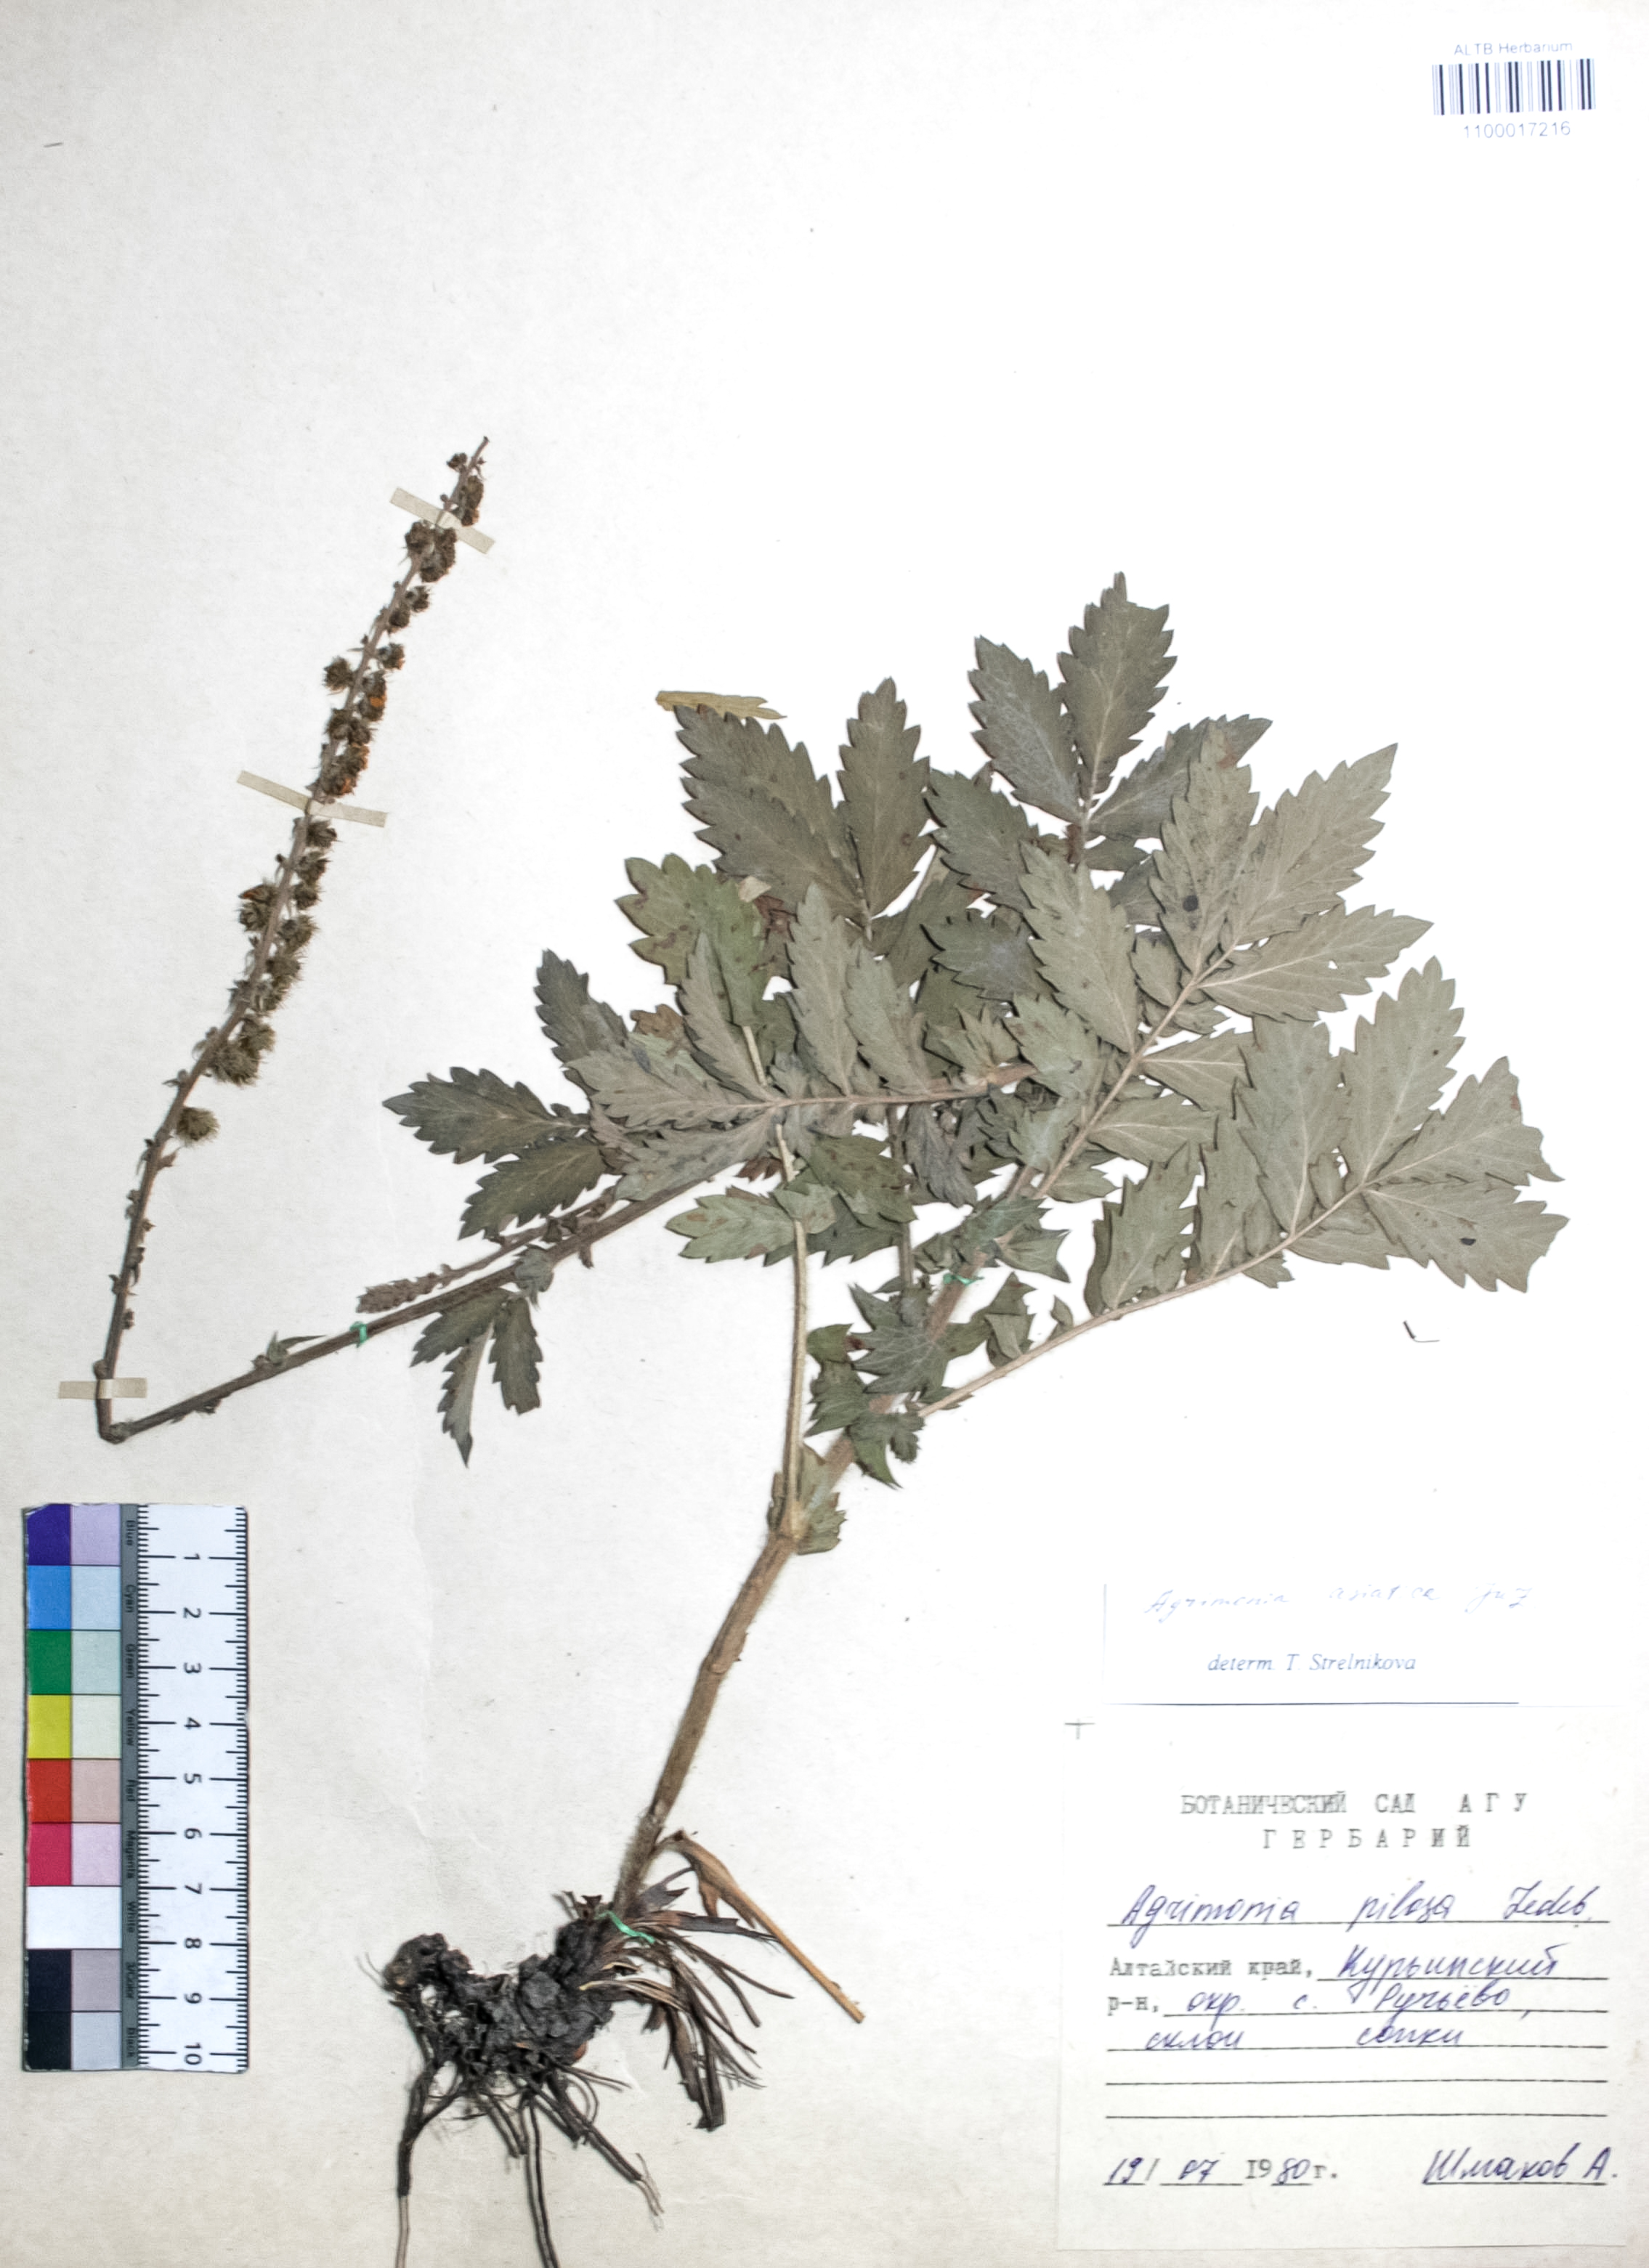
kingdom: Plantae
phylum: Tracheophyta
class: Magnoliopsida
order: Rosales
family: Rosaceae
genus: Agrimonia
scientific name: Agrimonia eupatoria
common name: Agrimony
